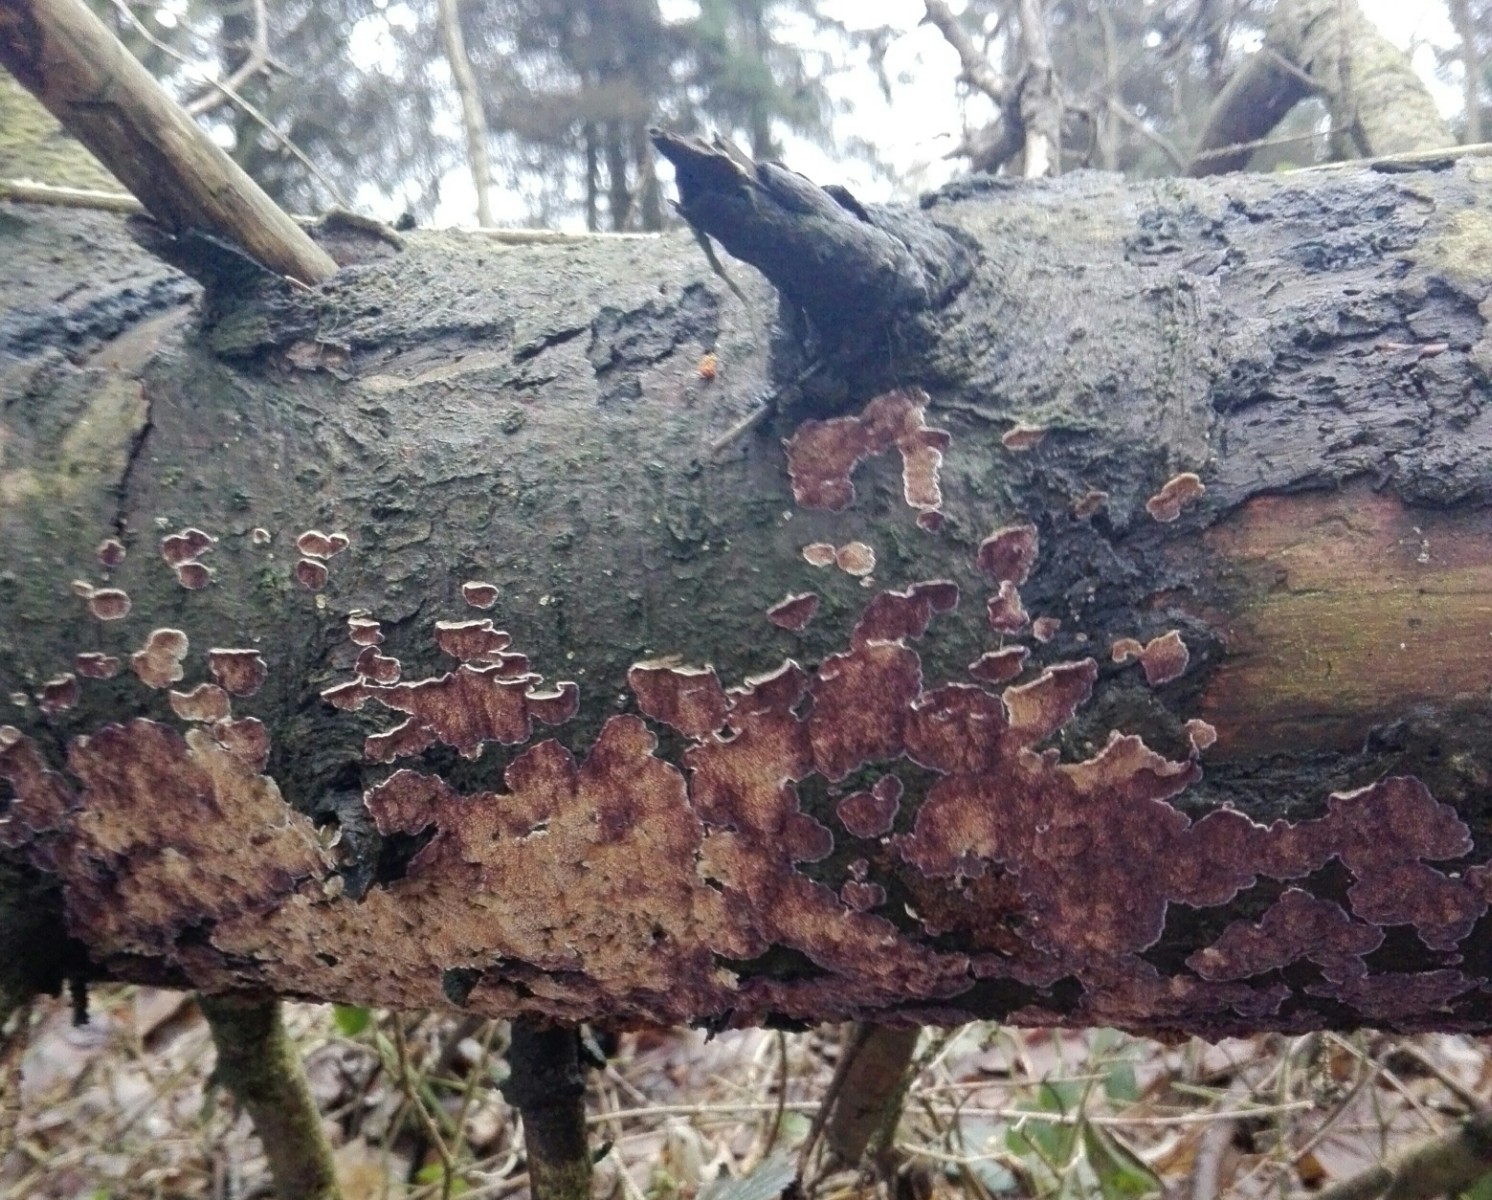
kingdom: Fungi
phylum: Basidiomycota
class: Agaricomycetes
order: Hymenochaetales
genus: Trichaptum
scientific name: Trichaptum abietinum
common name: almindelig violporesvamp
